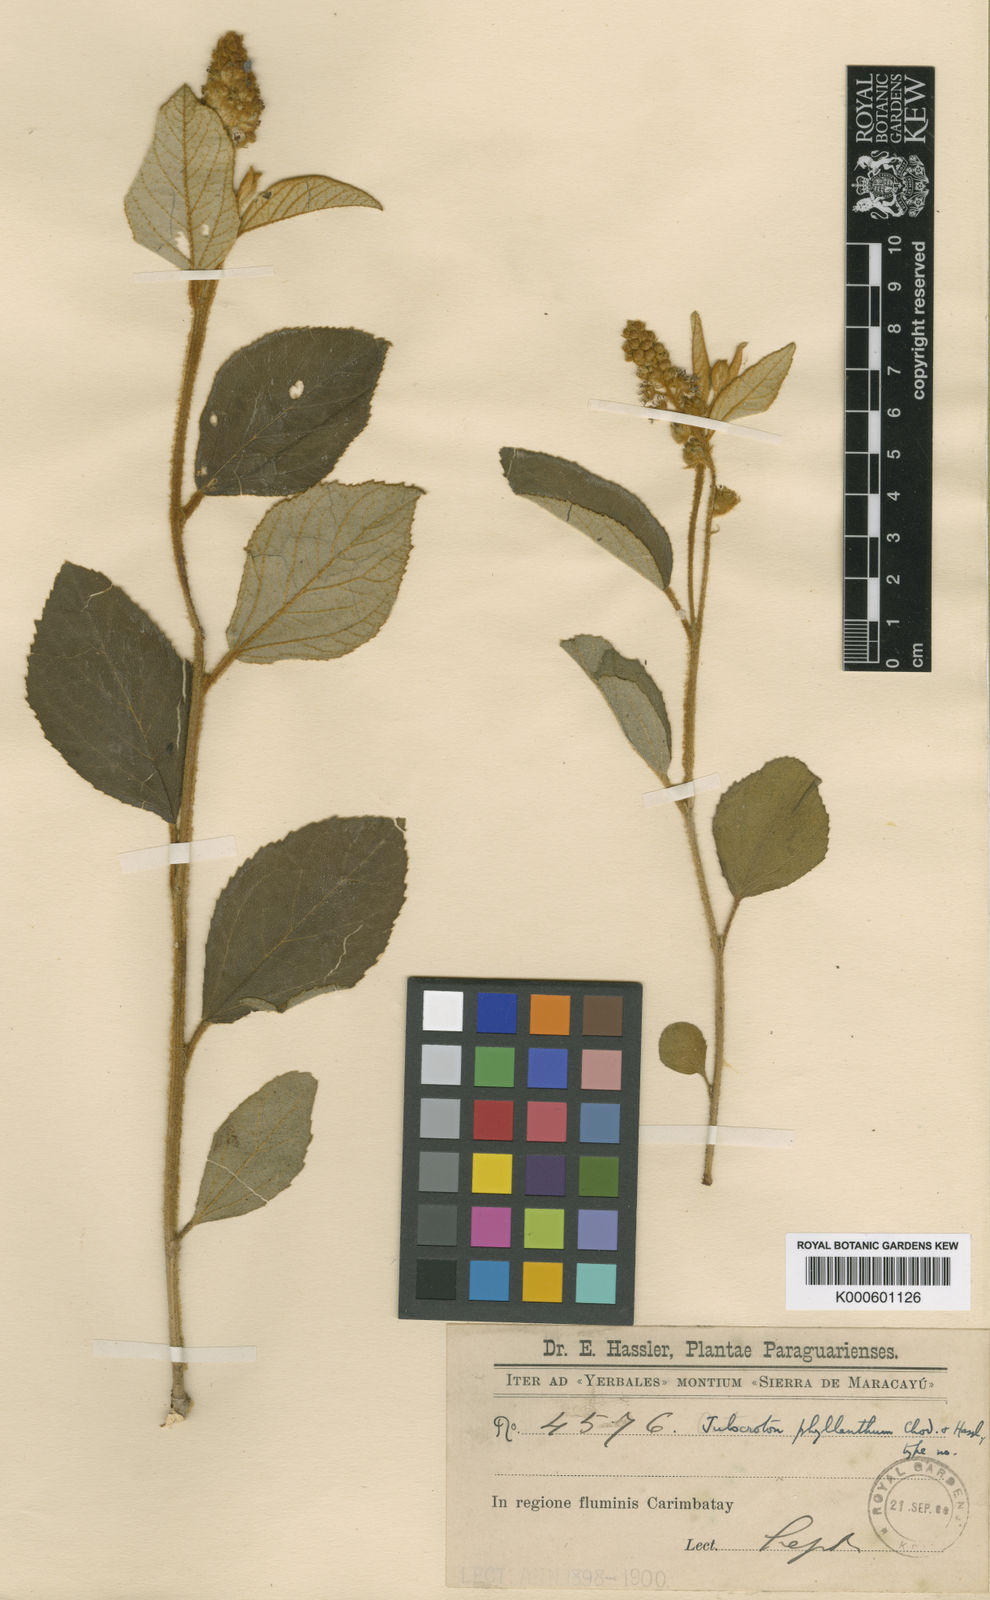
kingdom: Plantae
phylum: Tracheophyta
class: Magnoliopsida
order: Malpighiales
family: Euphorbiaceae
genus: Croton
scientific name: Croton phyllanthus
